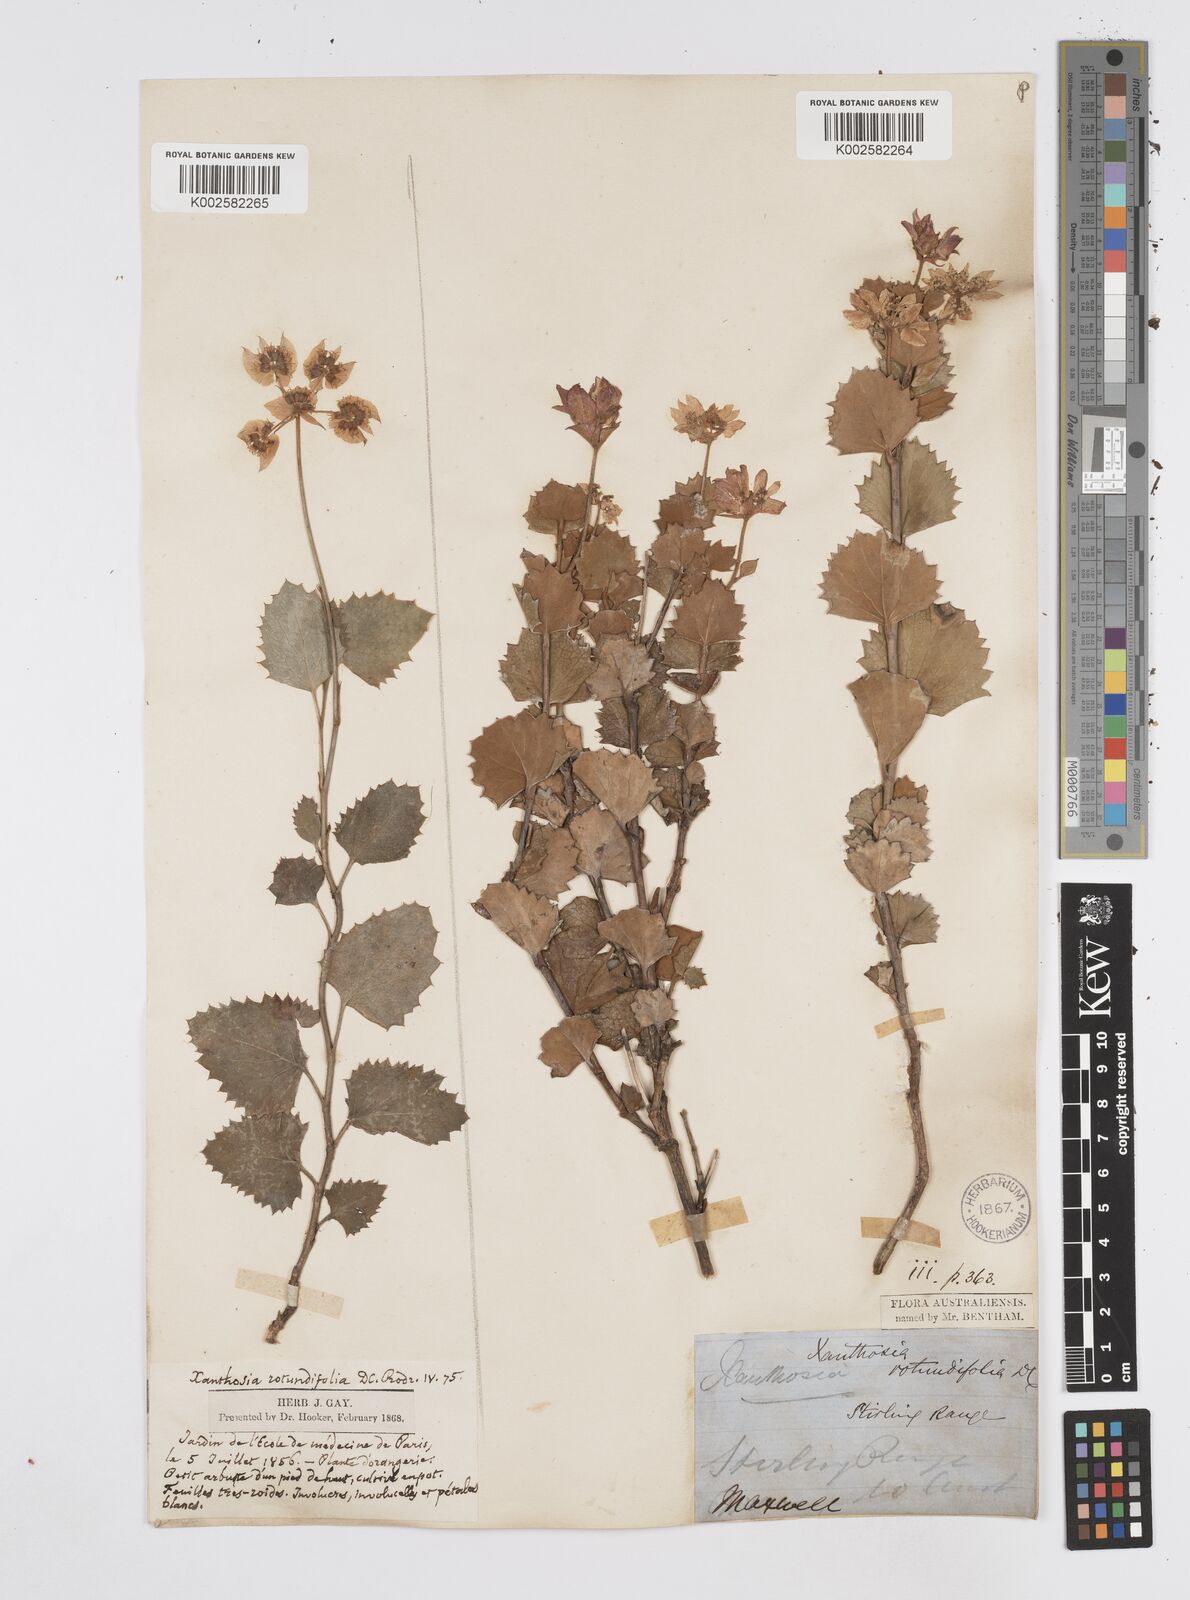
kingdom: Plantae
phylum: Tracheophyta
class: Magnoliopsida
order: Apiales
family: Apiaceae
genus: Xanthosia
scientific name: Xanthosia rotundifolia
